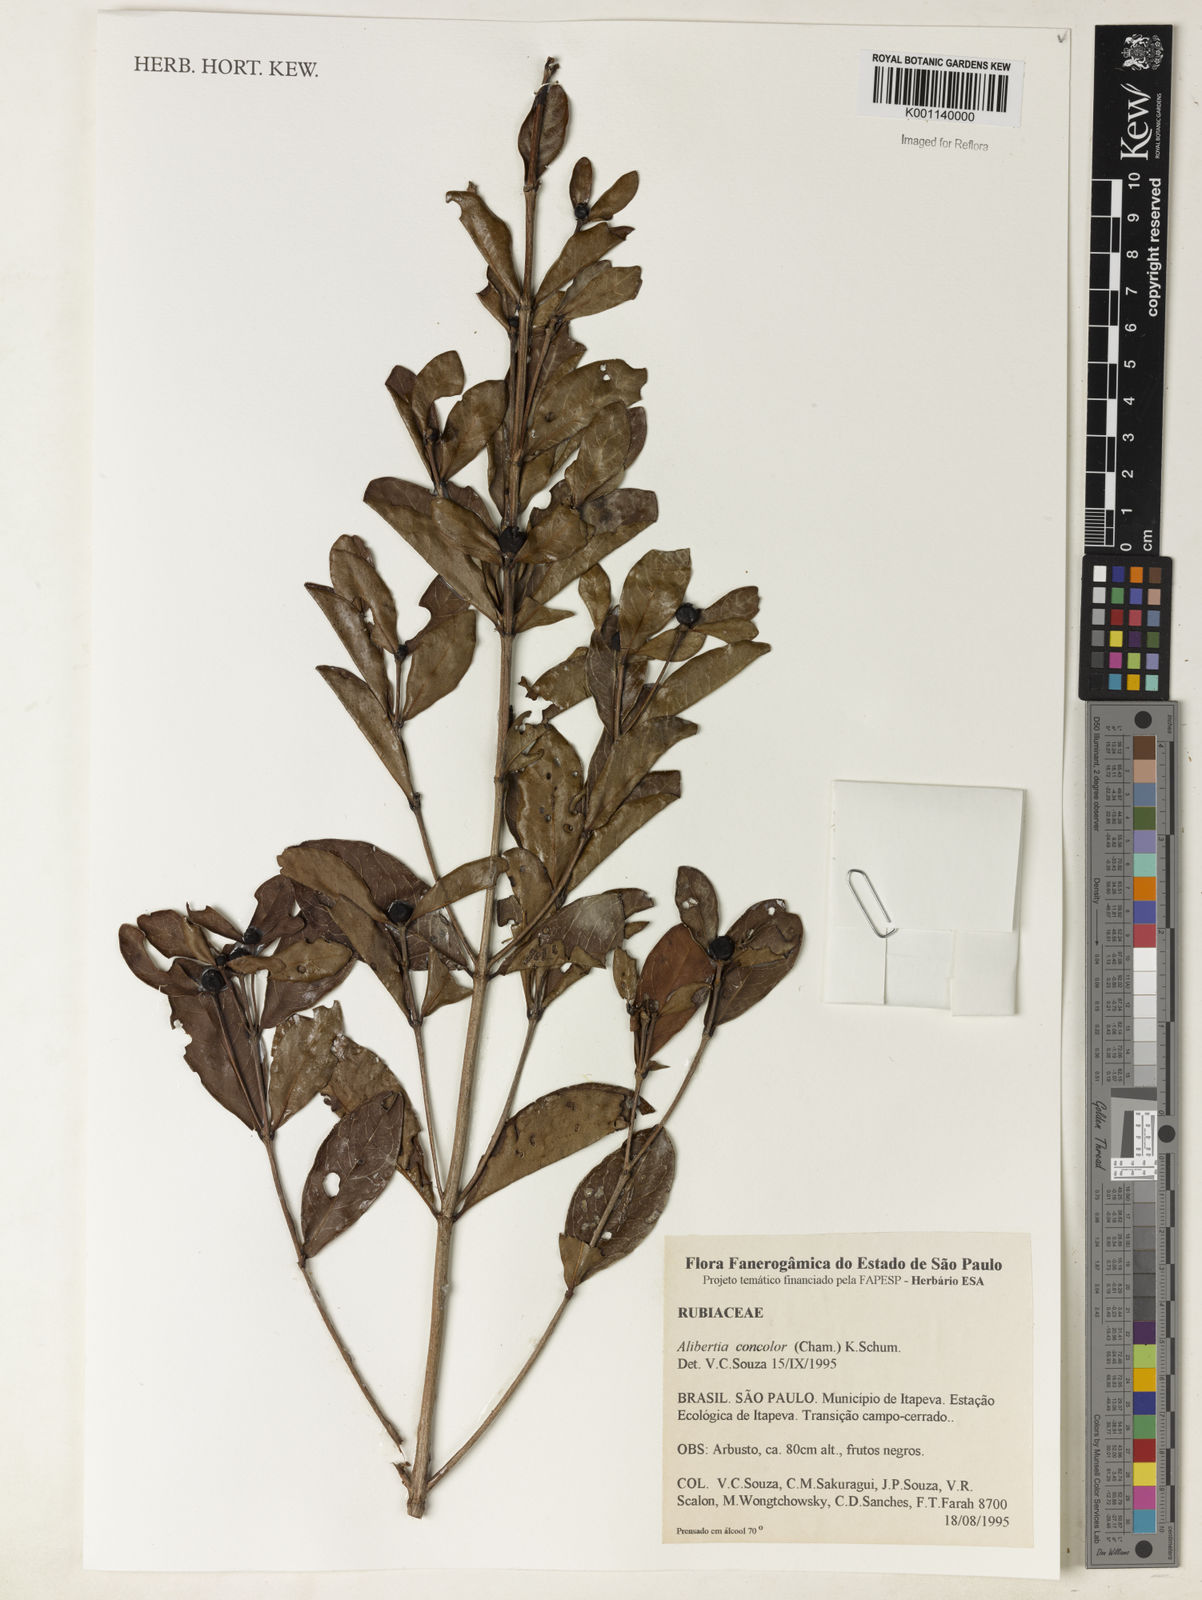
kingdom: Plantae
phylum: Tracheophyta
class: Magnoliopsida
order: Gentianales
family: Rubiaceae
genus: Cordiera
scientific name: Cordiera concolor
